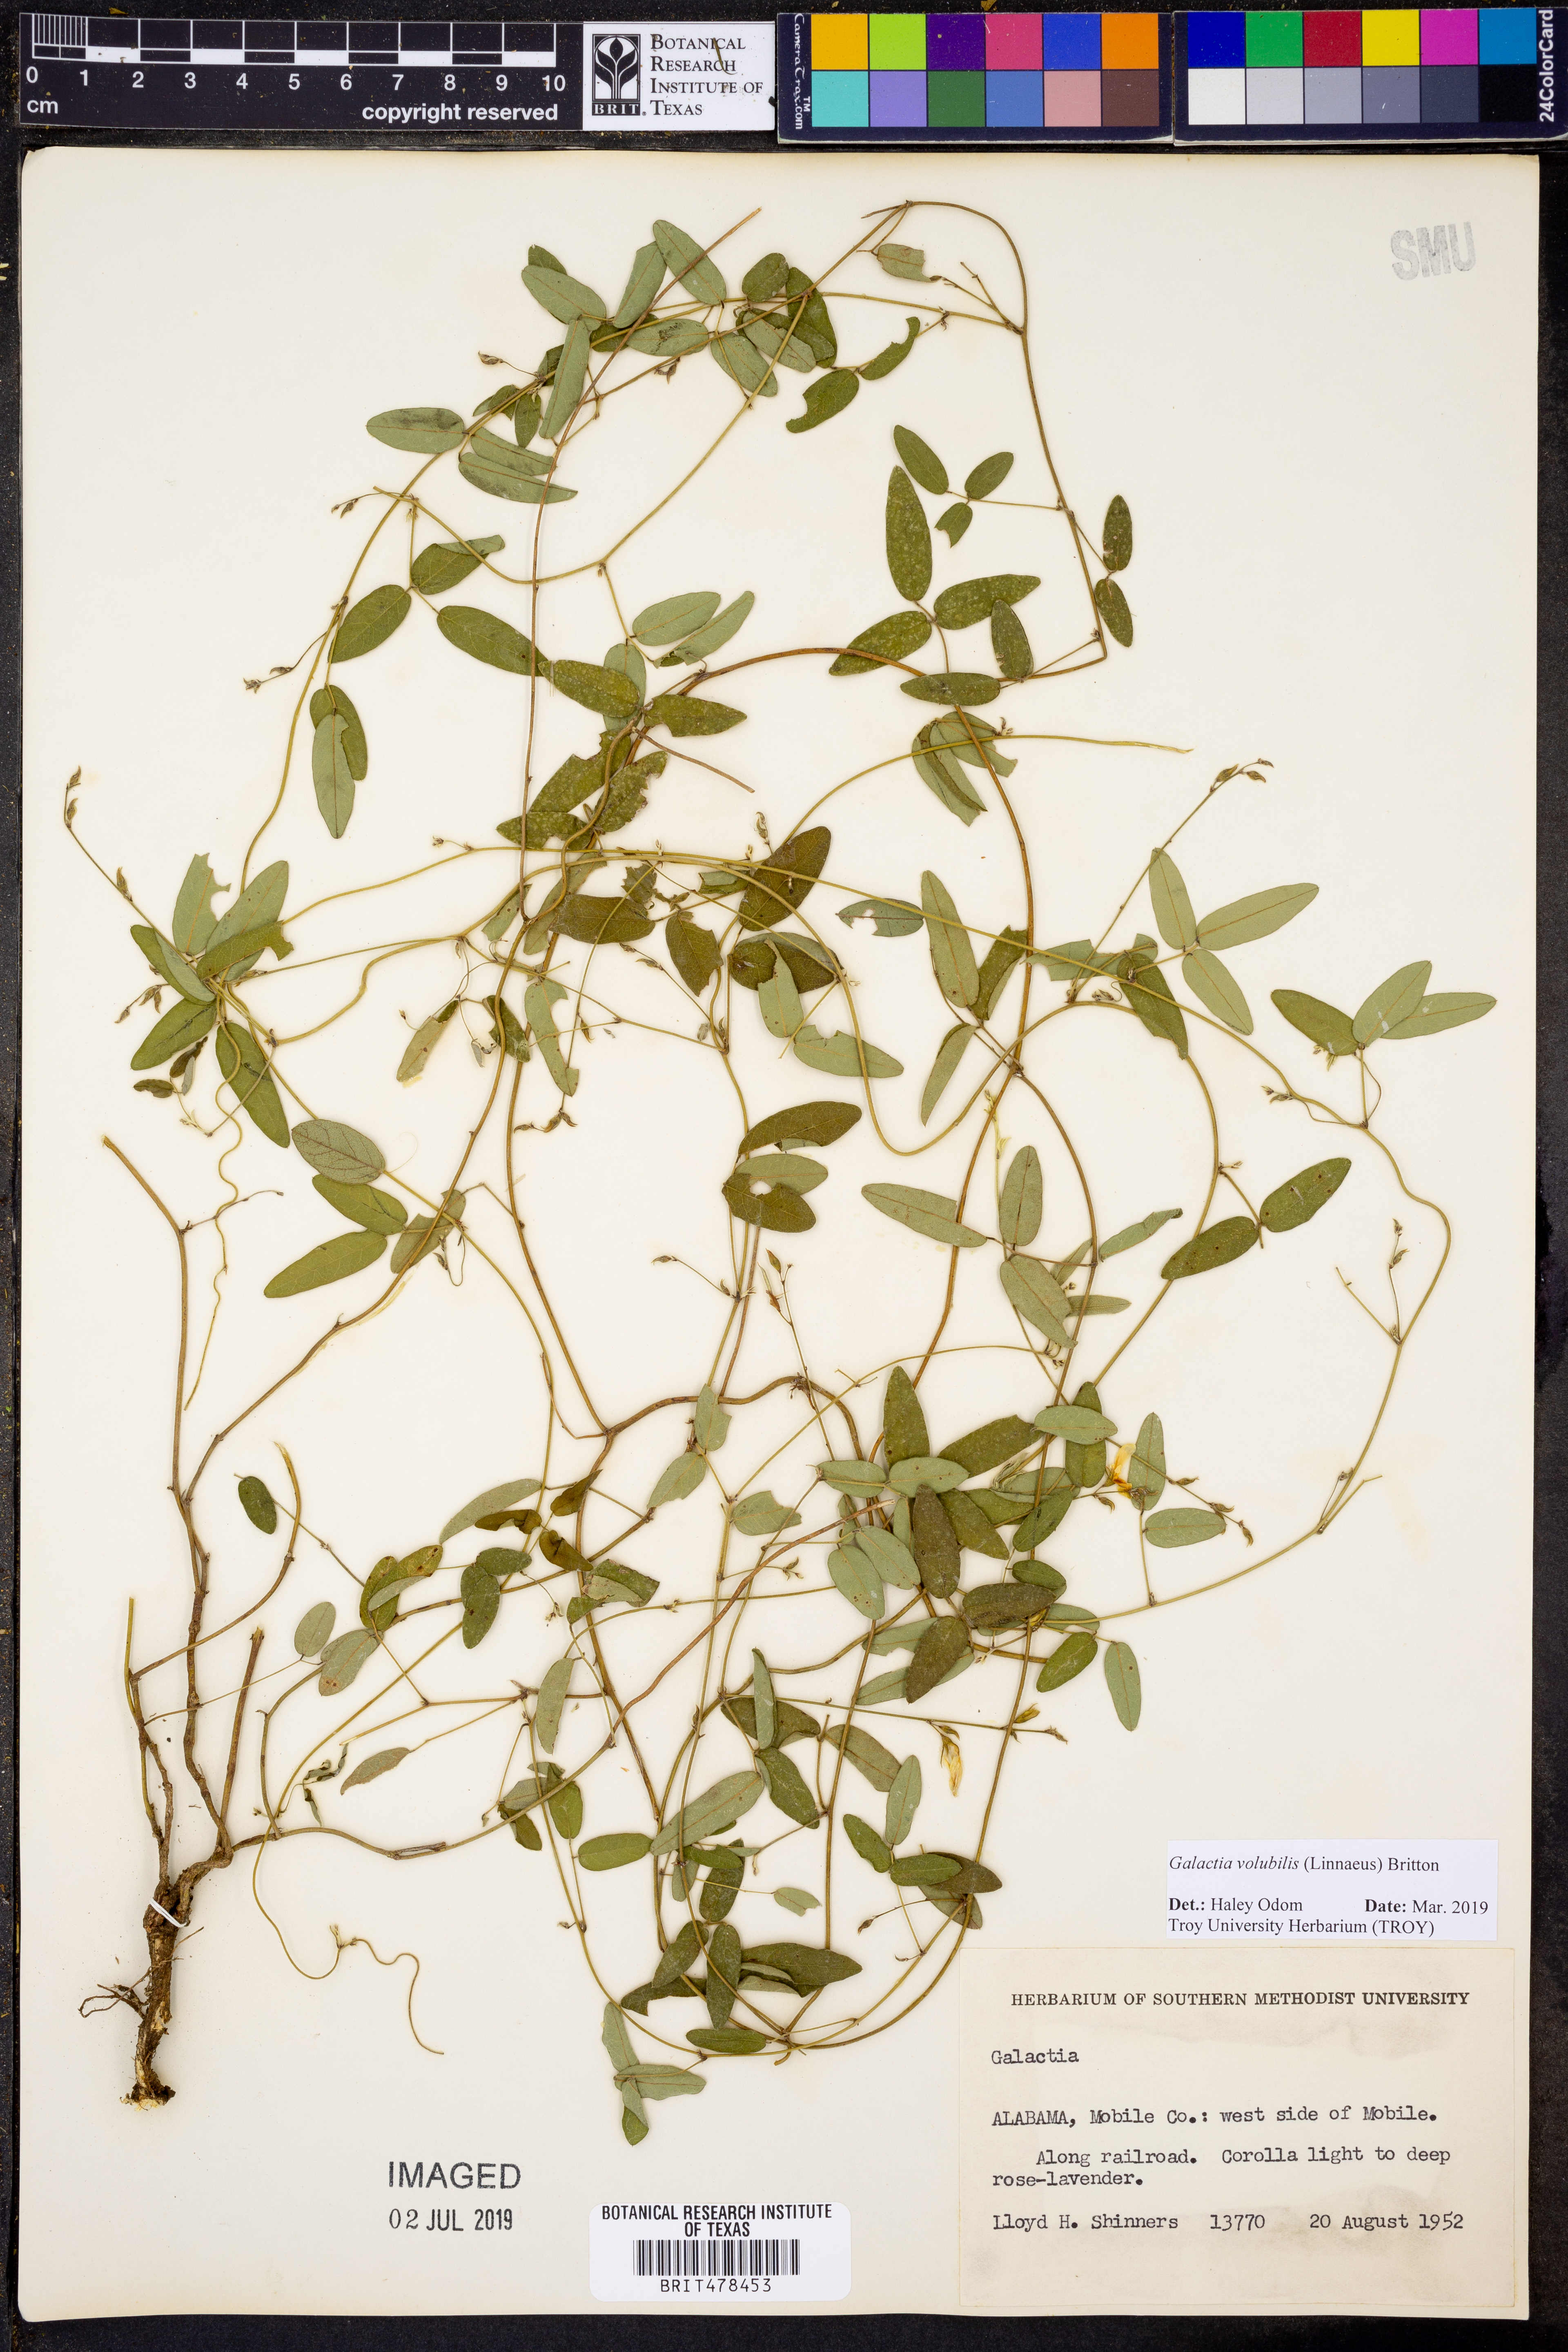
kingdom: Plantae
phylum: Tracheophyta
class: Magnoliopsida
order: Fabales
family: Fabaceae
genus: Galactia
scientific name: Galactia volubilis
